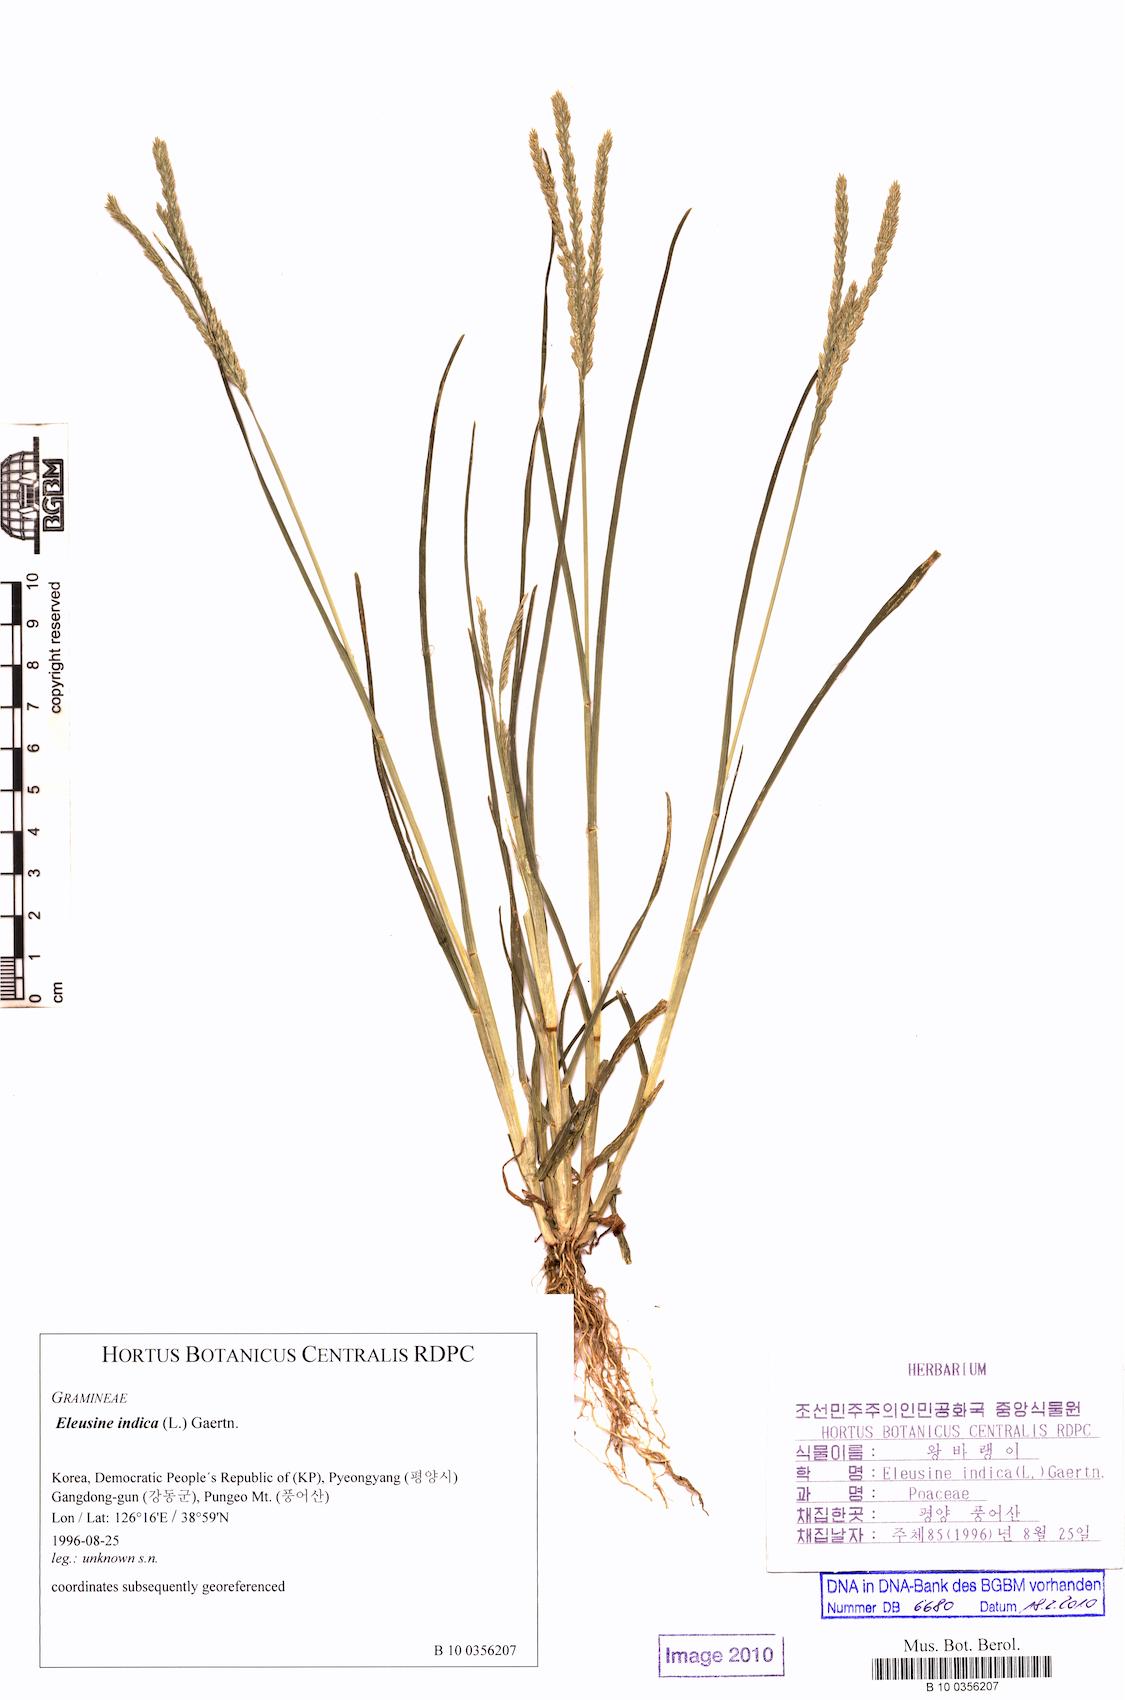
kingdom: Plantae
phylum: Tracheophyta
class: Liliopsida
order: Poales
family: Poaceae
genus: Eleusine
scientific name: Eleusine indica
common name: Yard-grass
